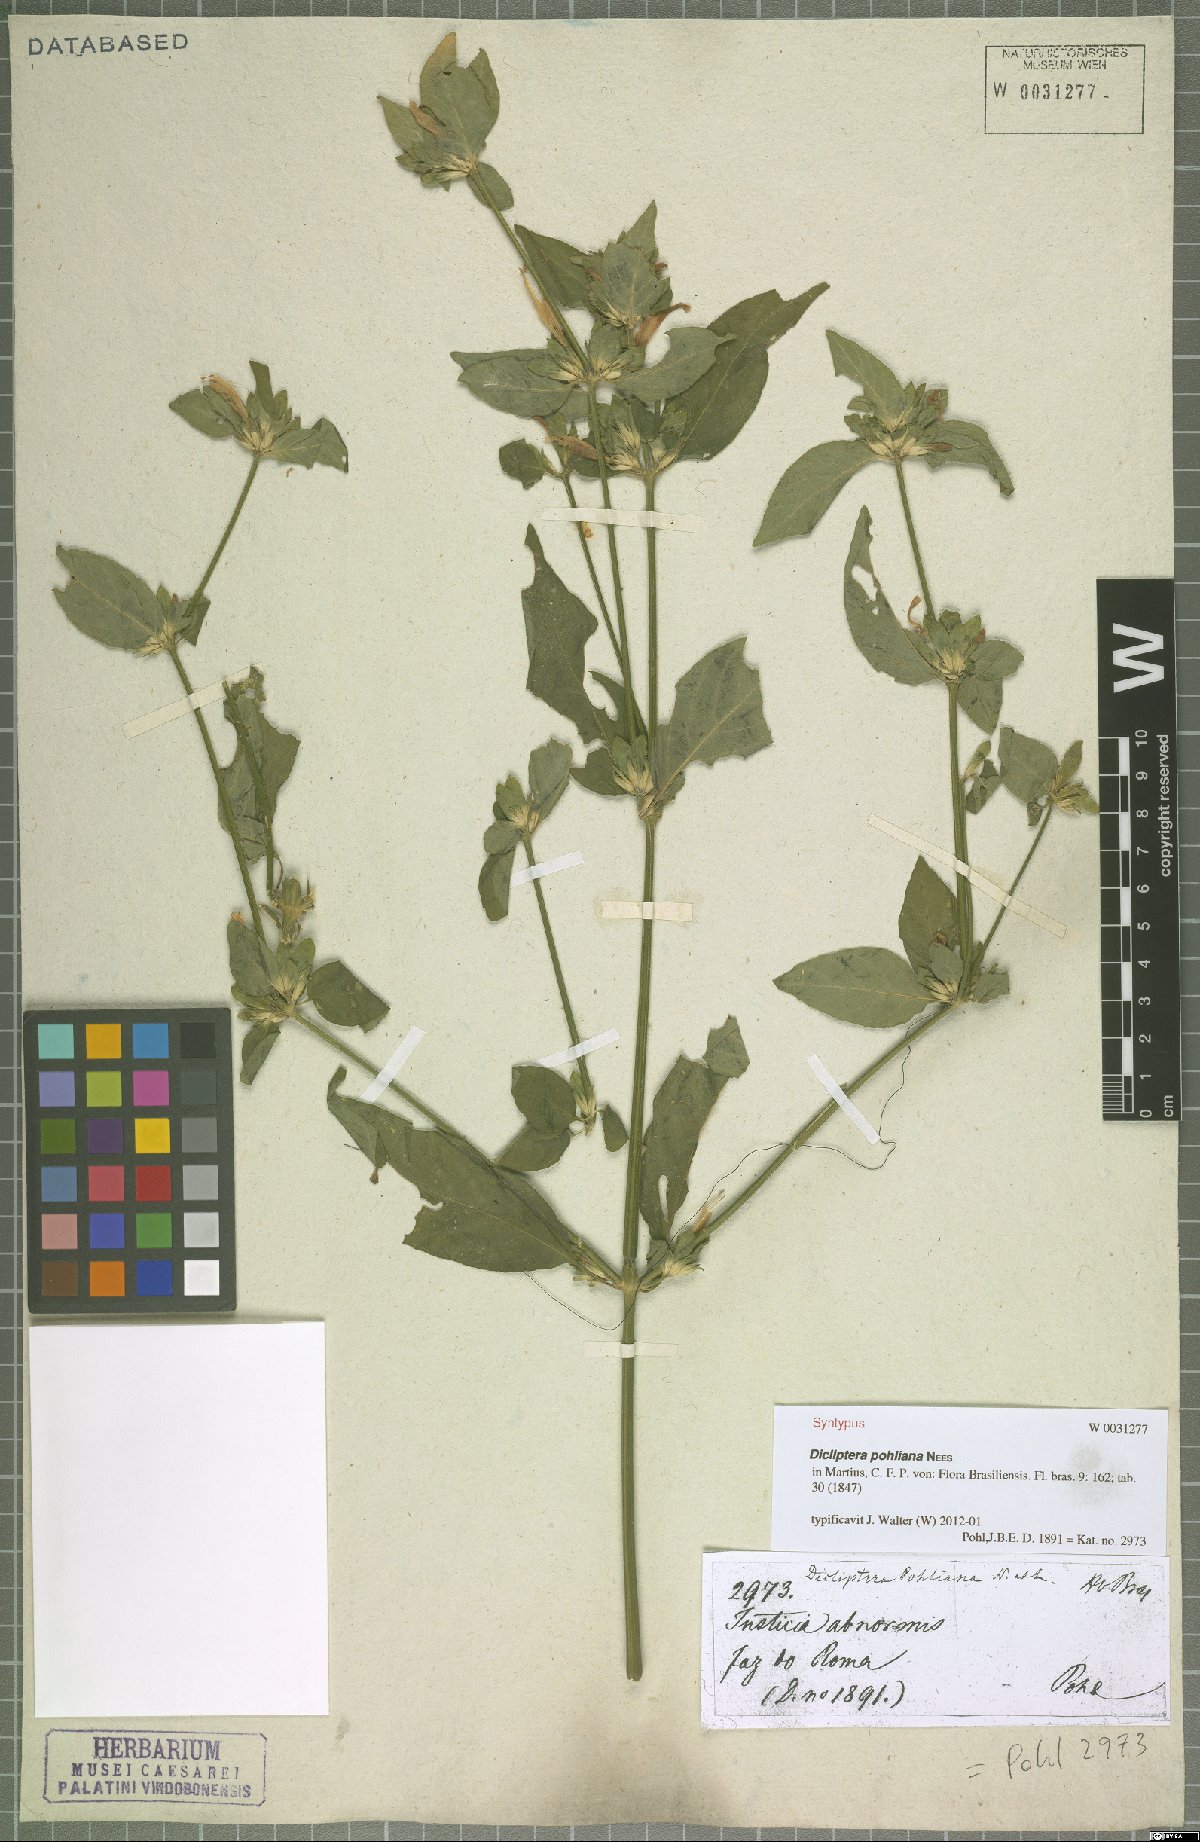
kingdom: Plantae
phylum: Tracheophyta
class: Magnoliopsida
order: Lamiales
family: Acanthaceae
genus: Dicliptera
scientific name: Dicliptera squarrosa
